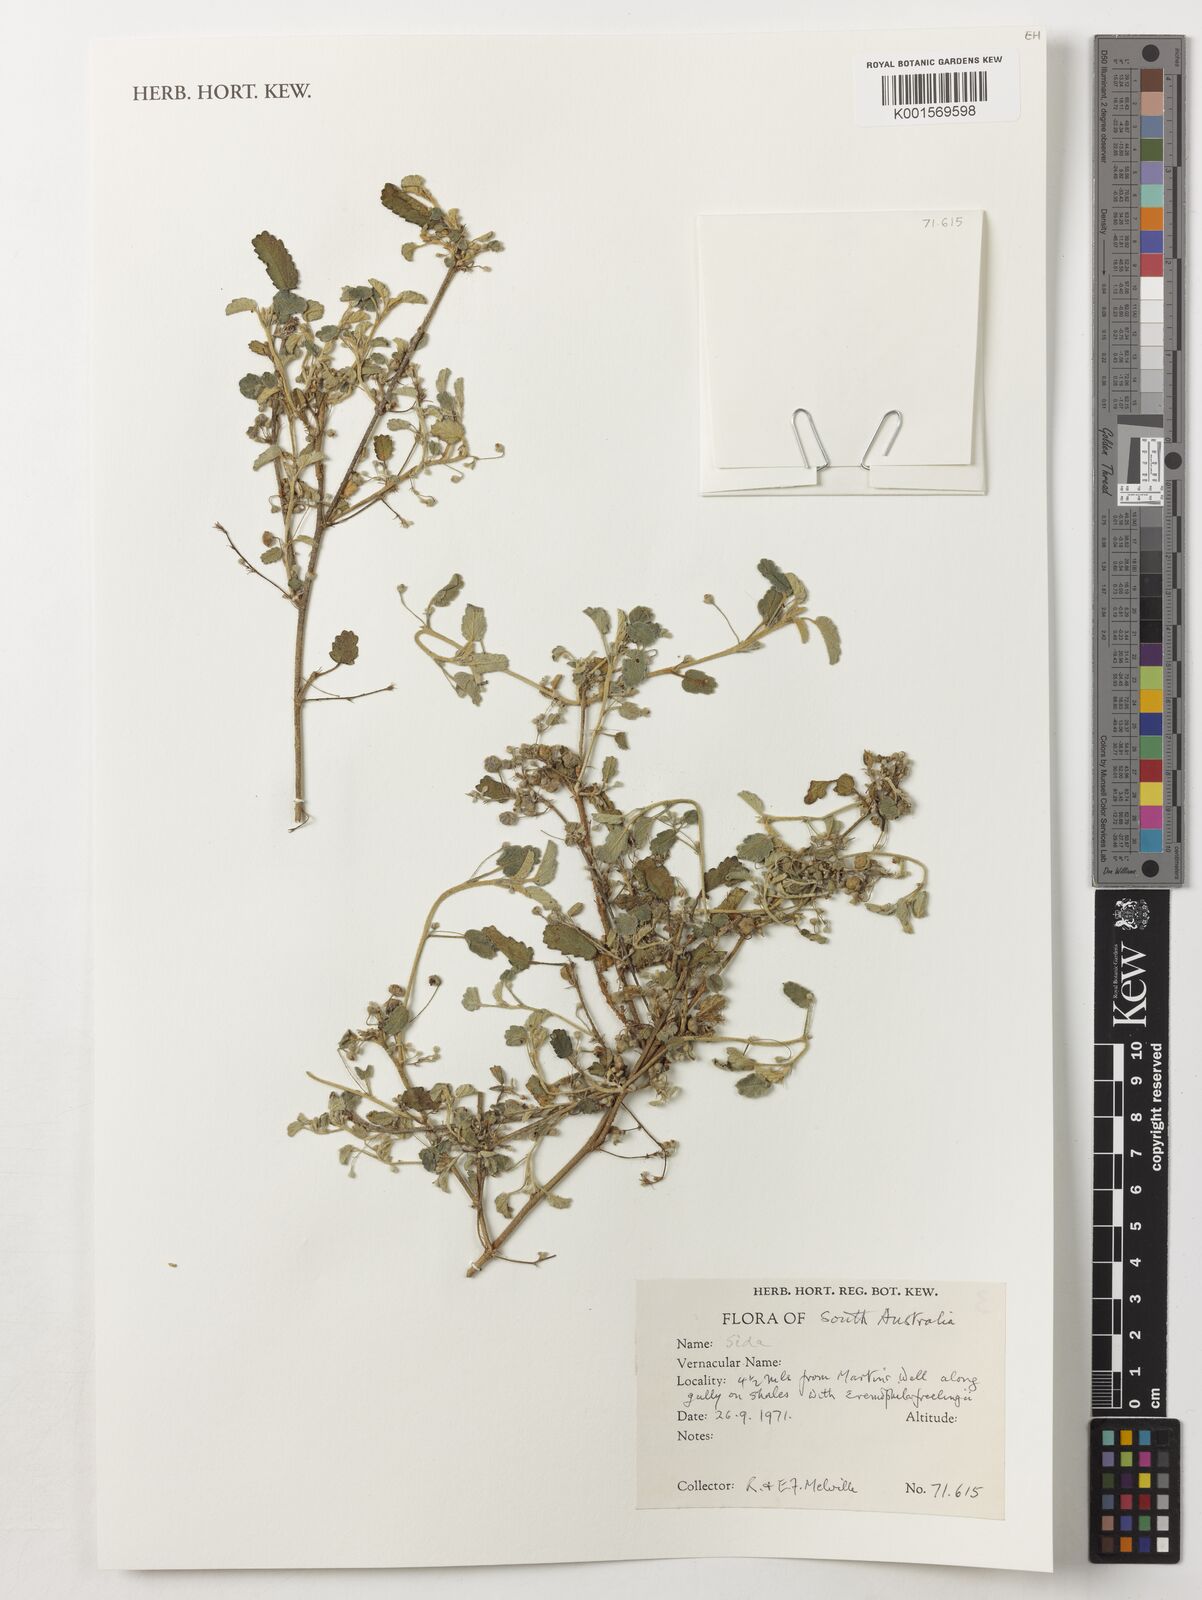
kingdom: Plantae
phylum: Tracheophyta
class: Magnoliopsida
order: Malvales
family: Malvaceae
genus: Sida
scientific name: Sida
